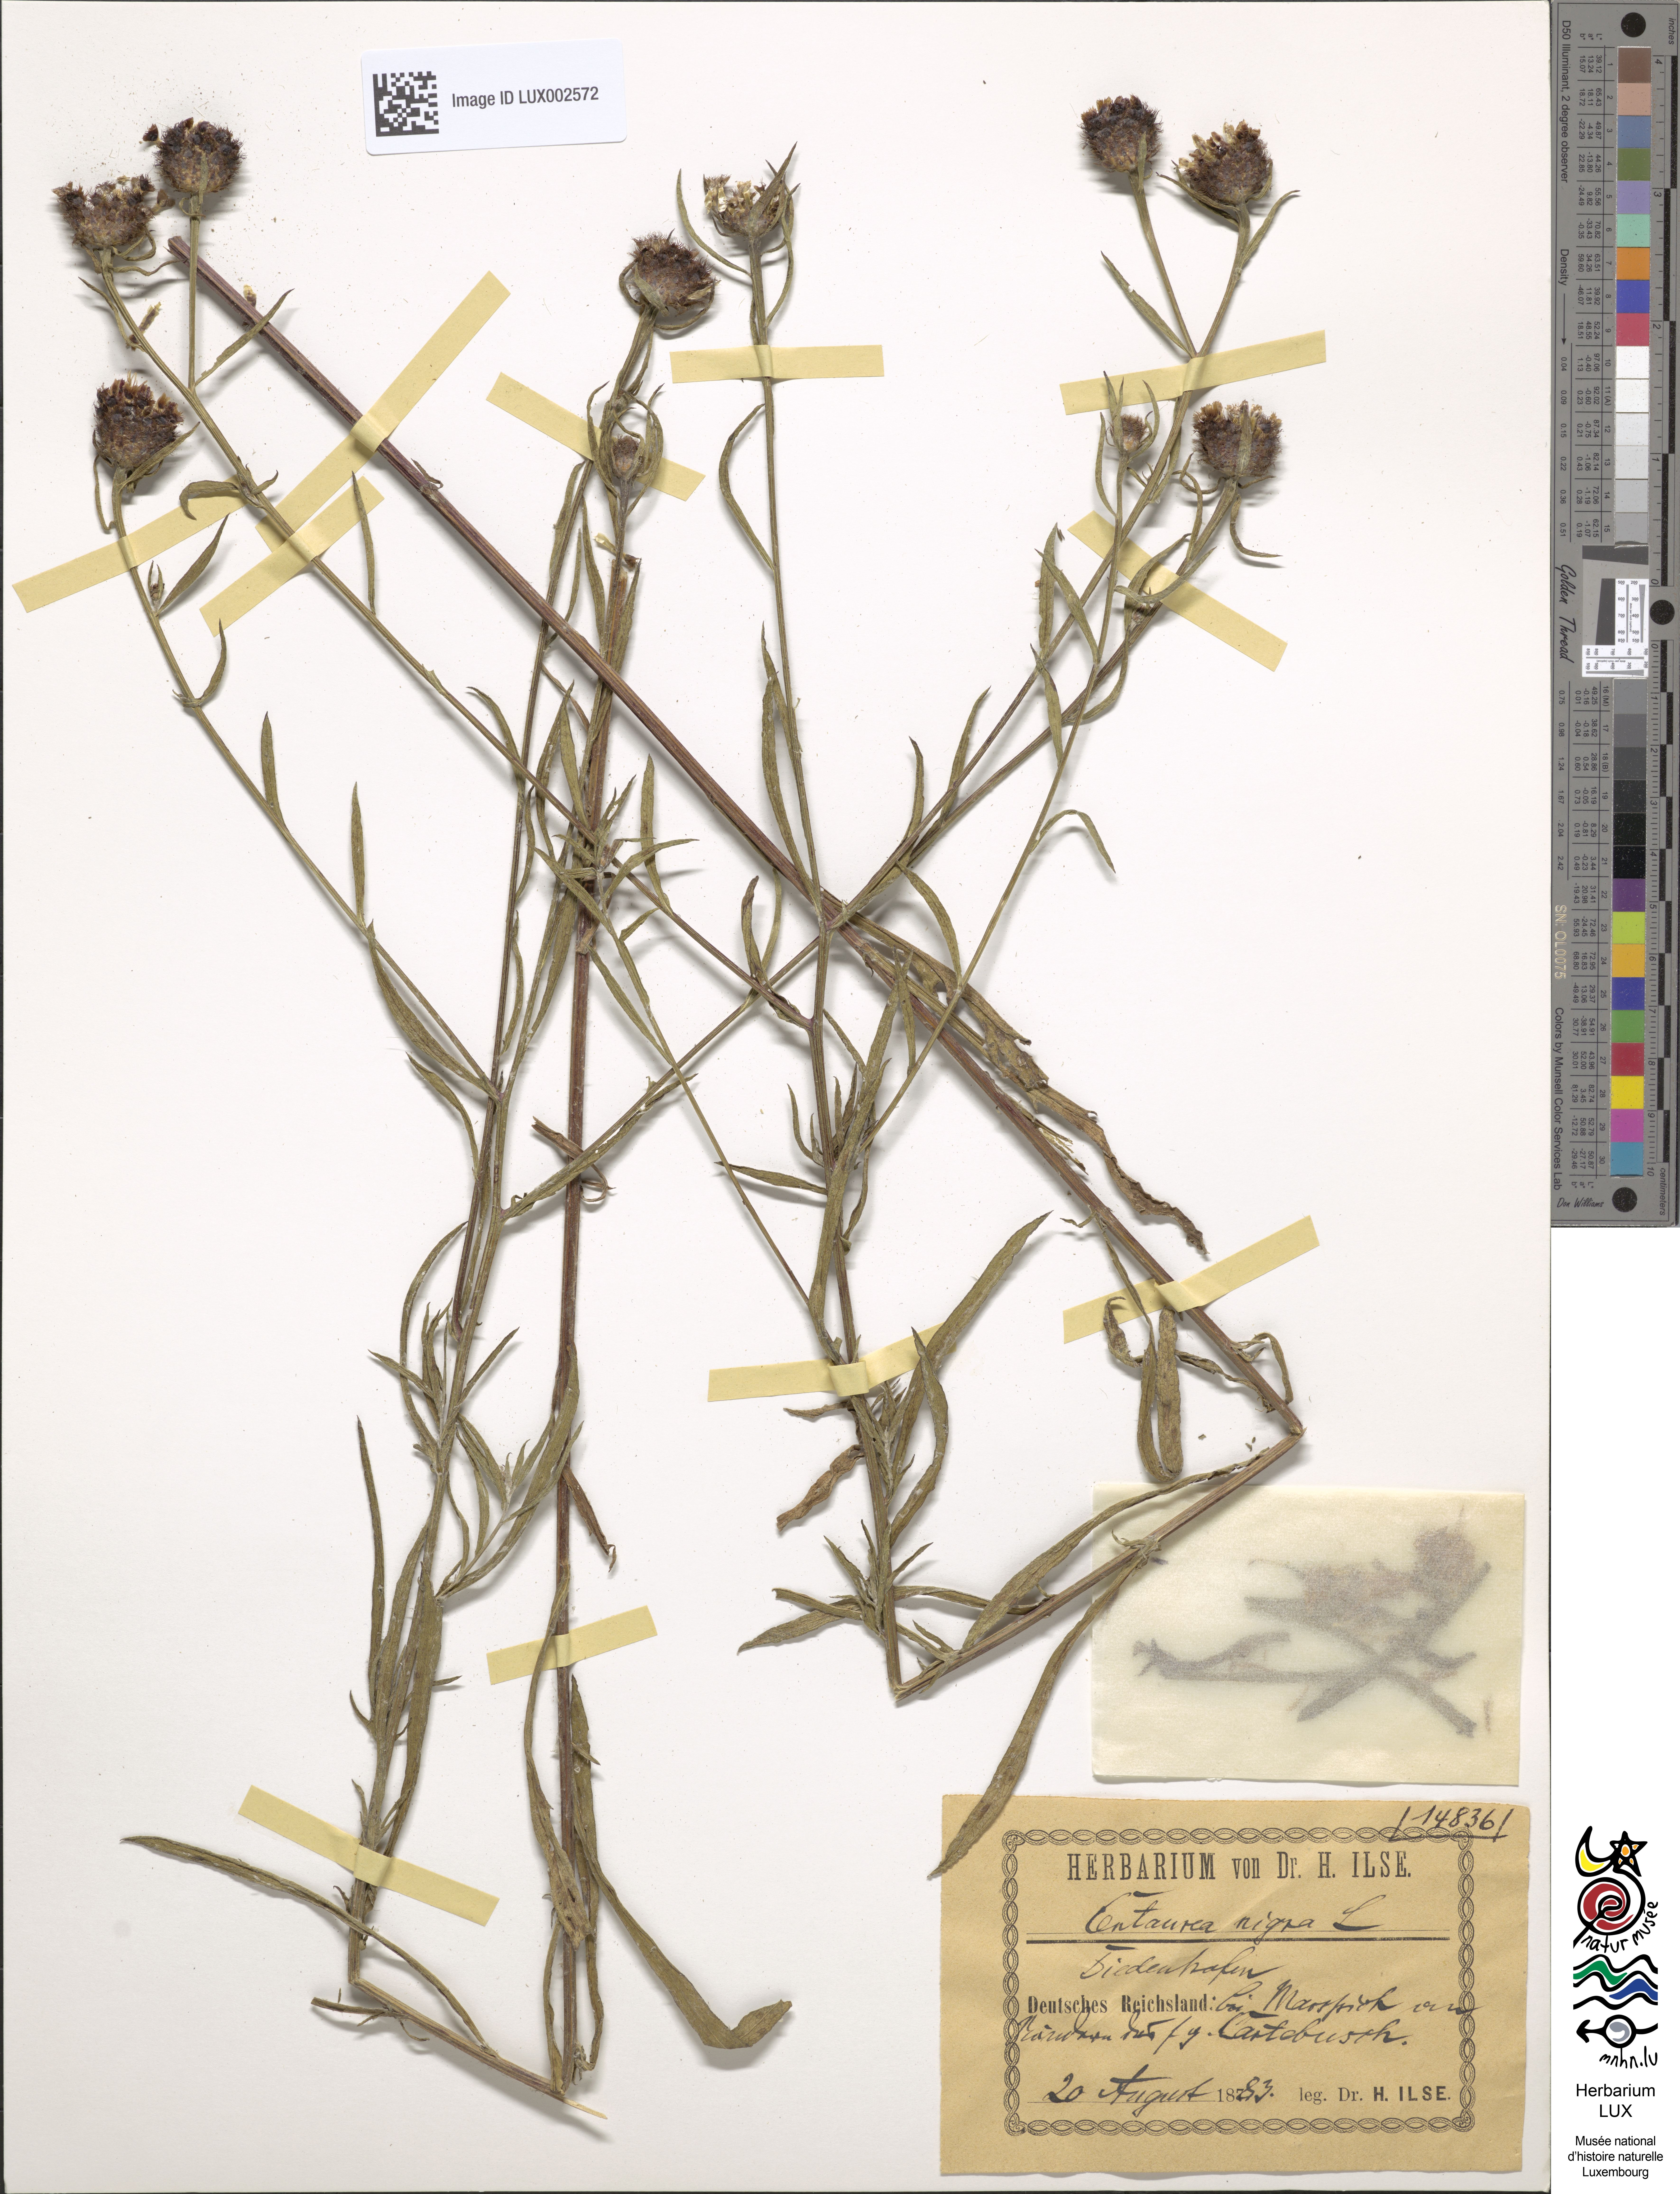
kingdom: Plantae
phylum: Tracheophyta
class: Magnoliopsida
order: Asterales
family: Asteraceae
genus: Centaurea
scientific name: Centaurea nigra
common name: Lesser knapweed
